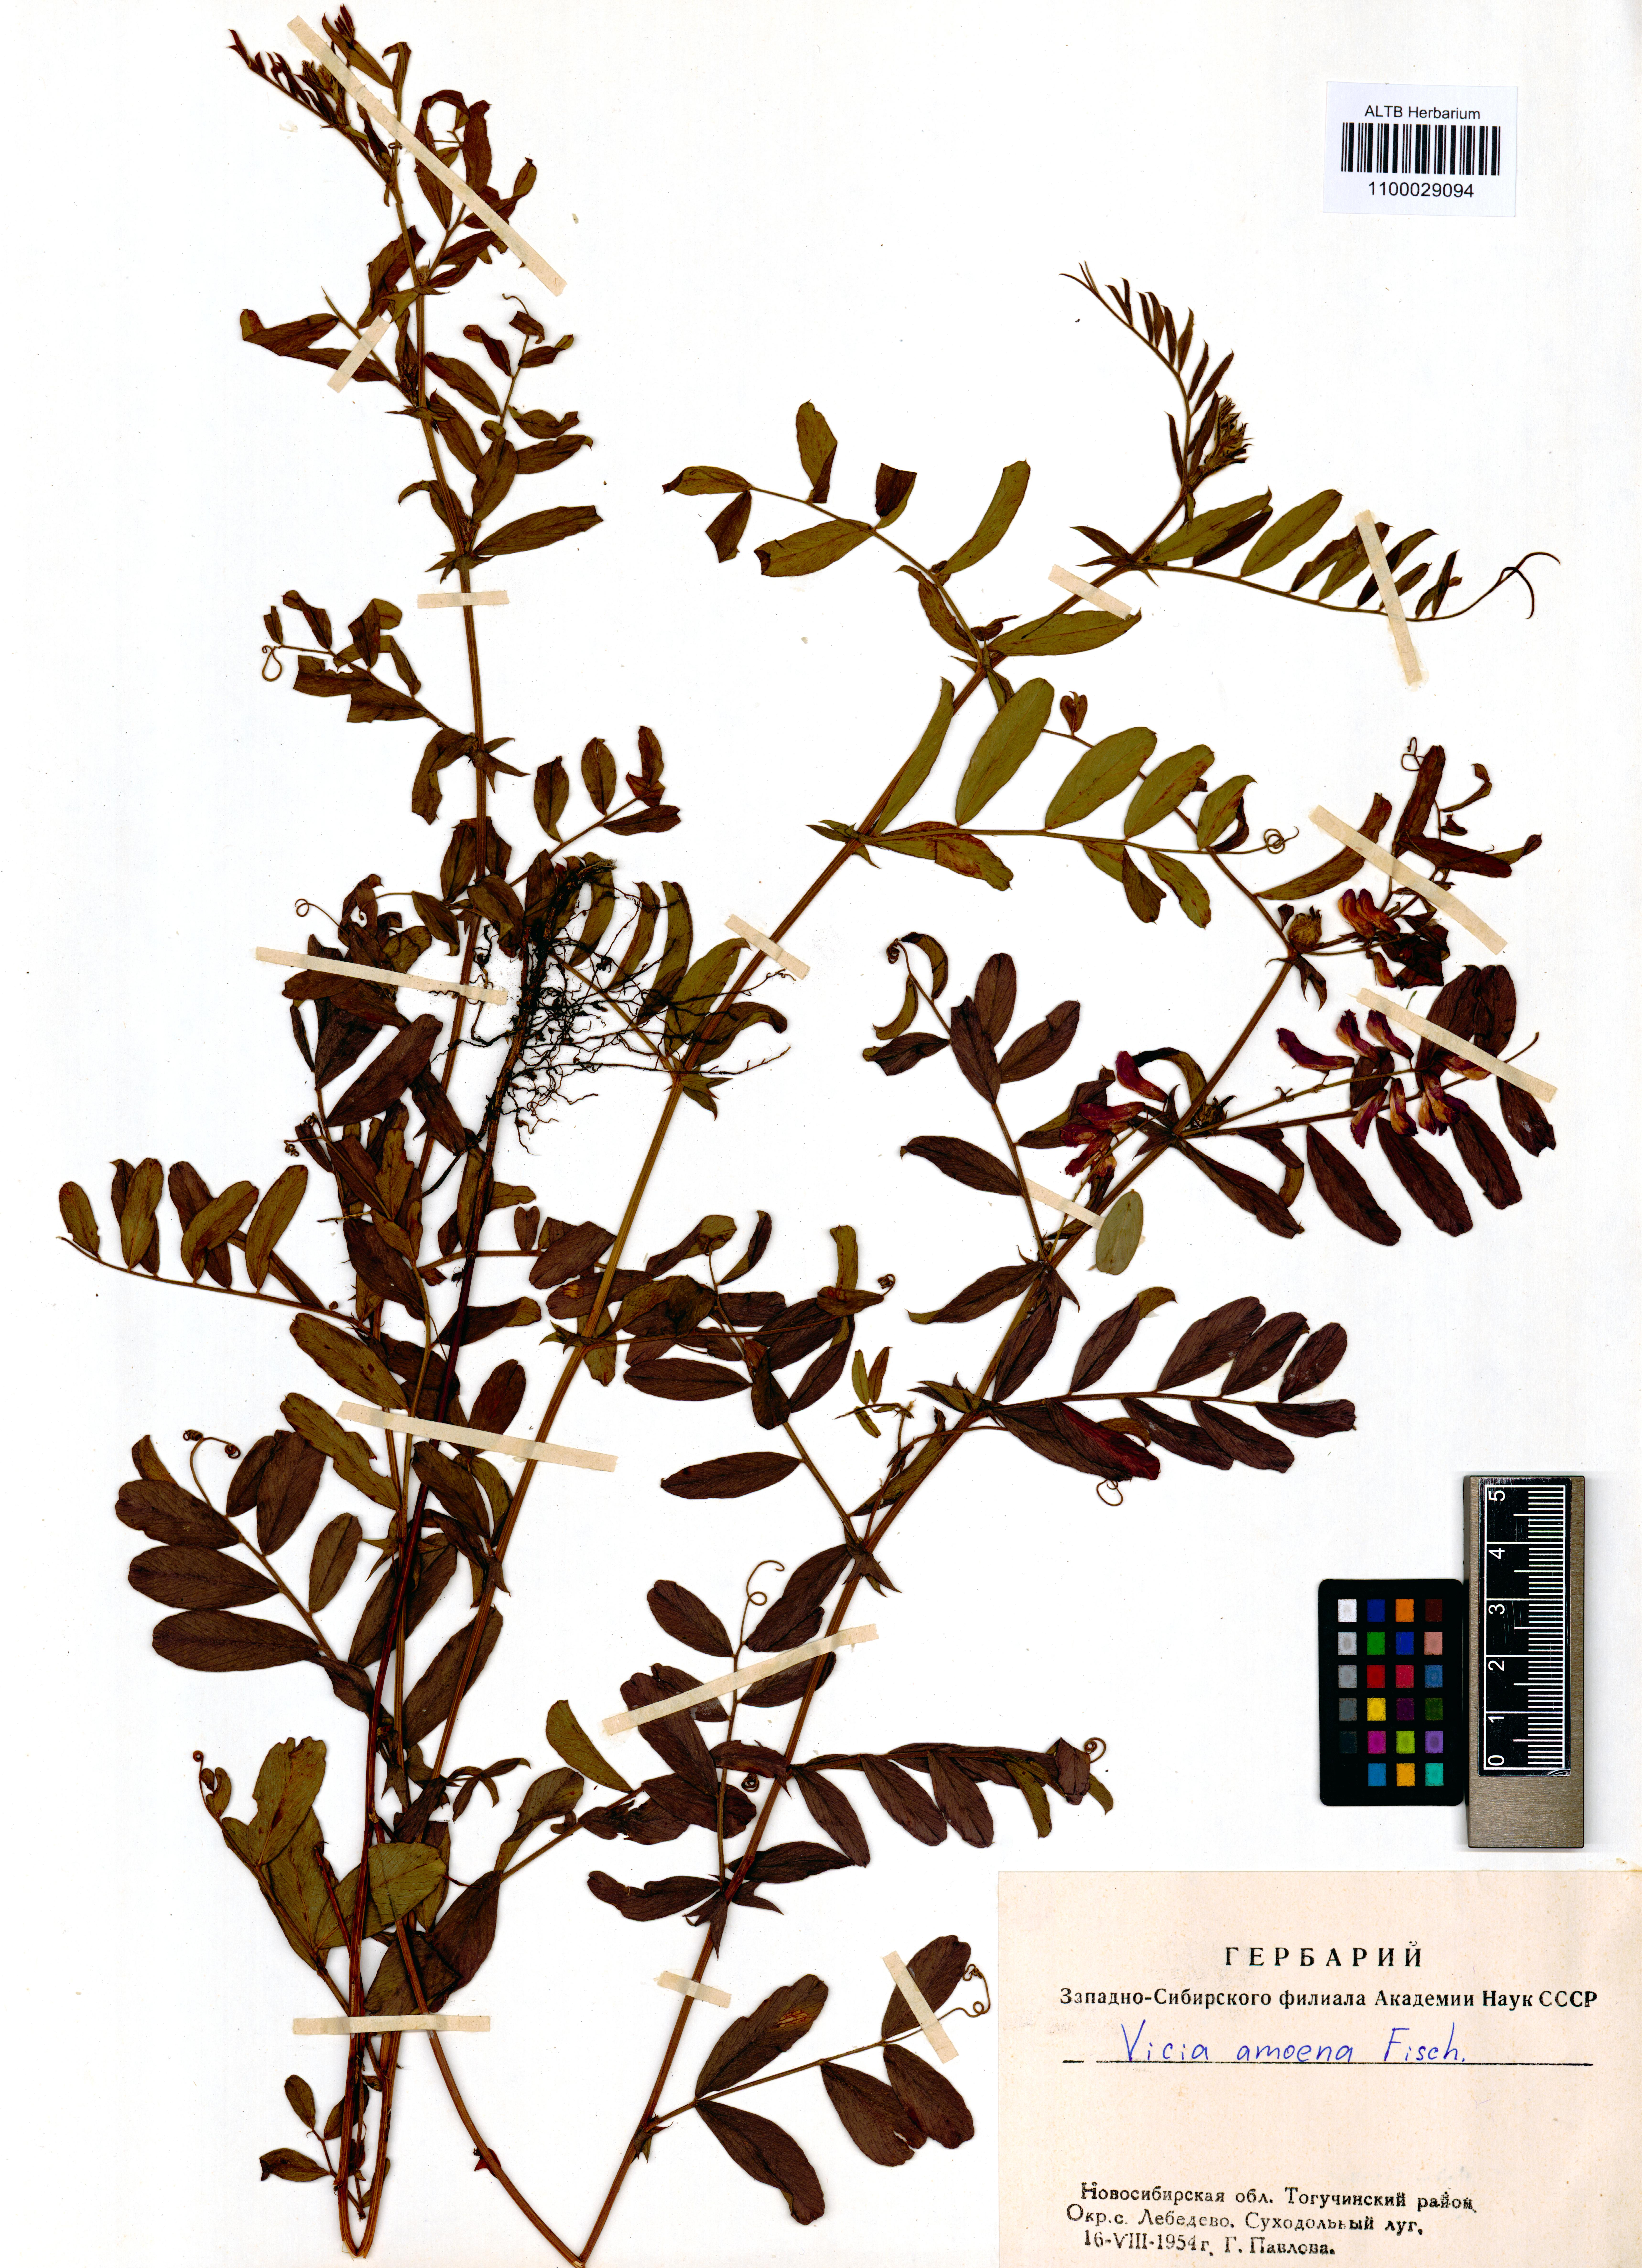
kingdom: Plantae
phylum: Tracheophyta
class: Magnoliopsida
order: Fabales
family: Fabaceae
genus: Vicia
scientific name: Vicia amoena
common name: Cheder ebs
